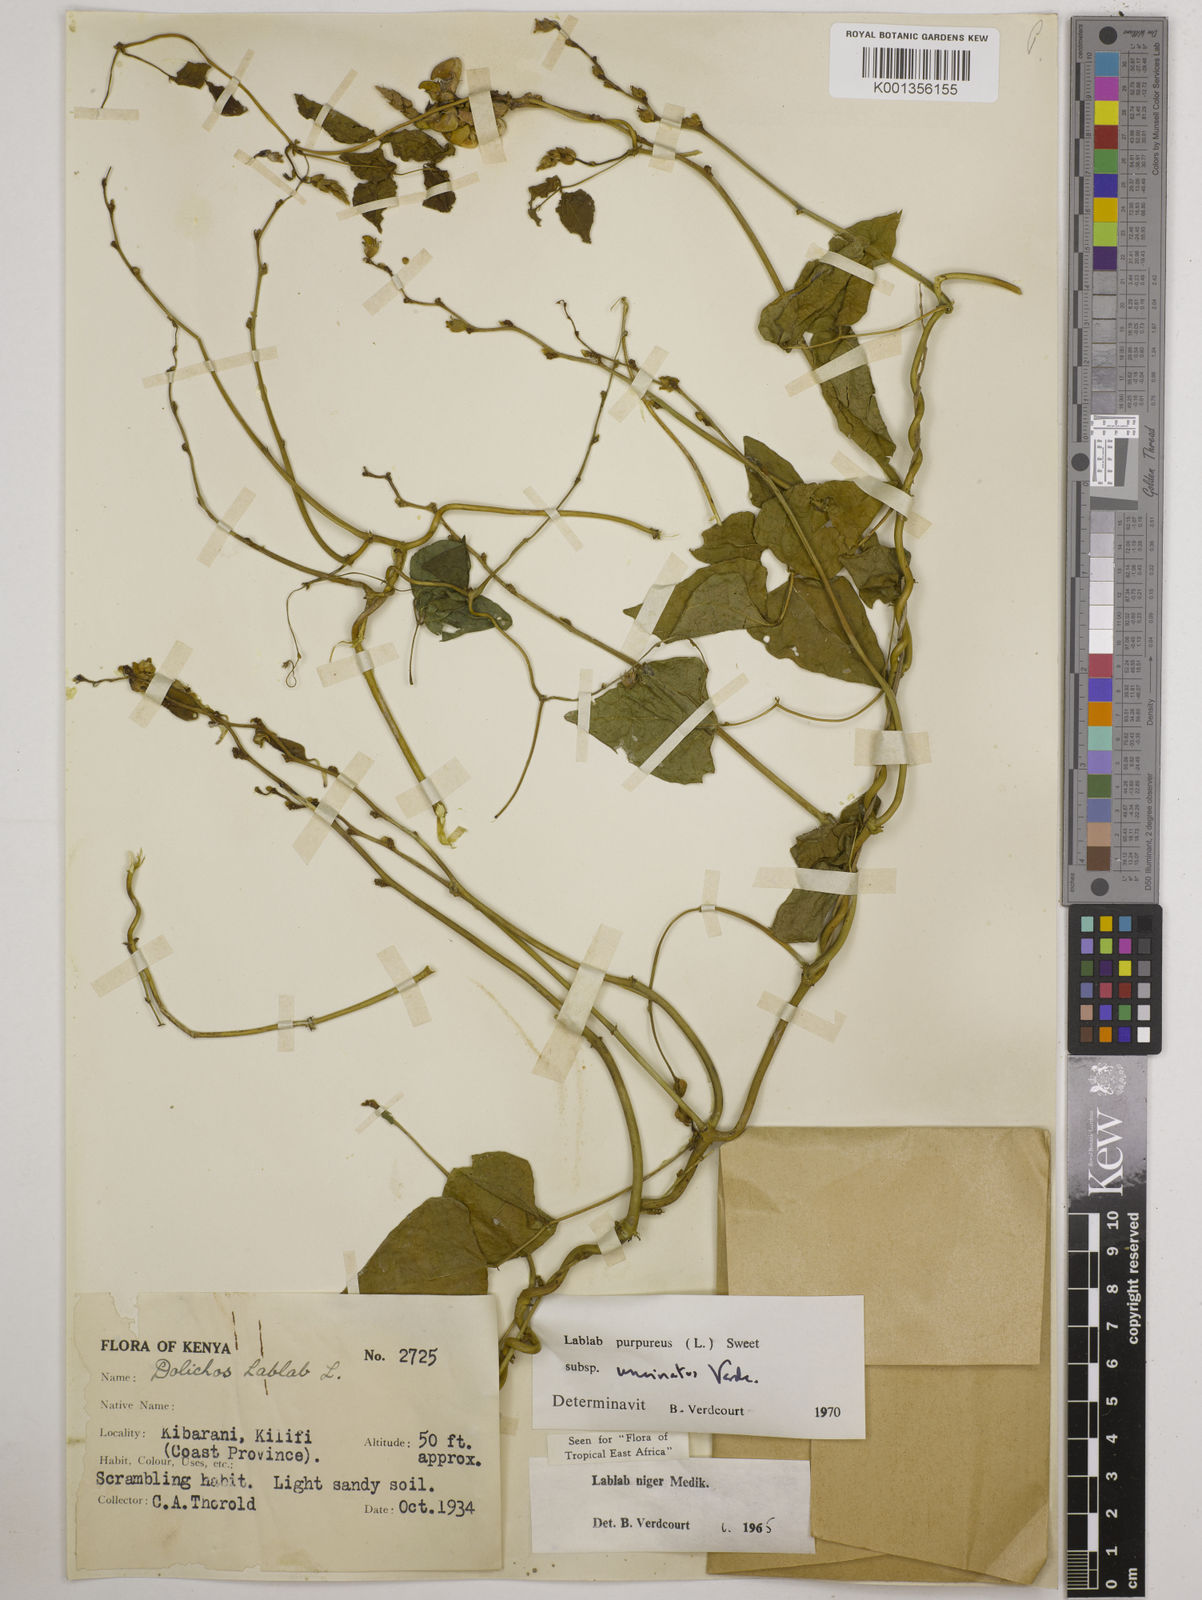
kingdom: Plantae
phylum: Tracheophyta
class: Magnoliopsida
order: Fabales
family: Fabaceae
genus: Lablab
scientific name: Lablab purpureus
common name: Lablab-bean
